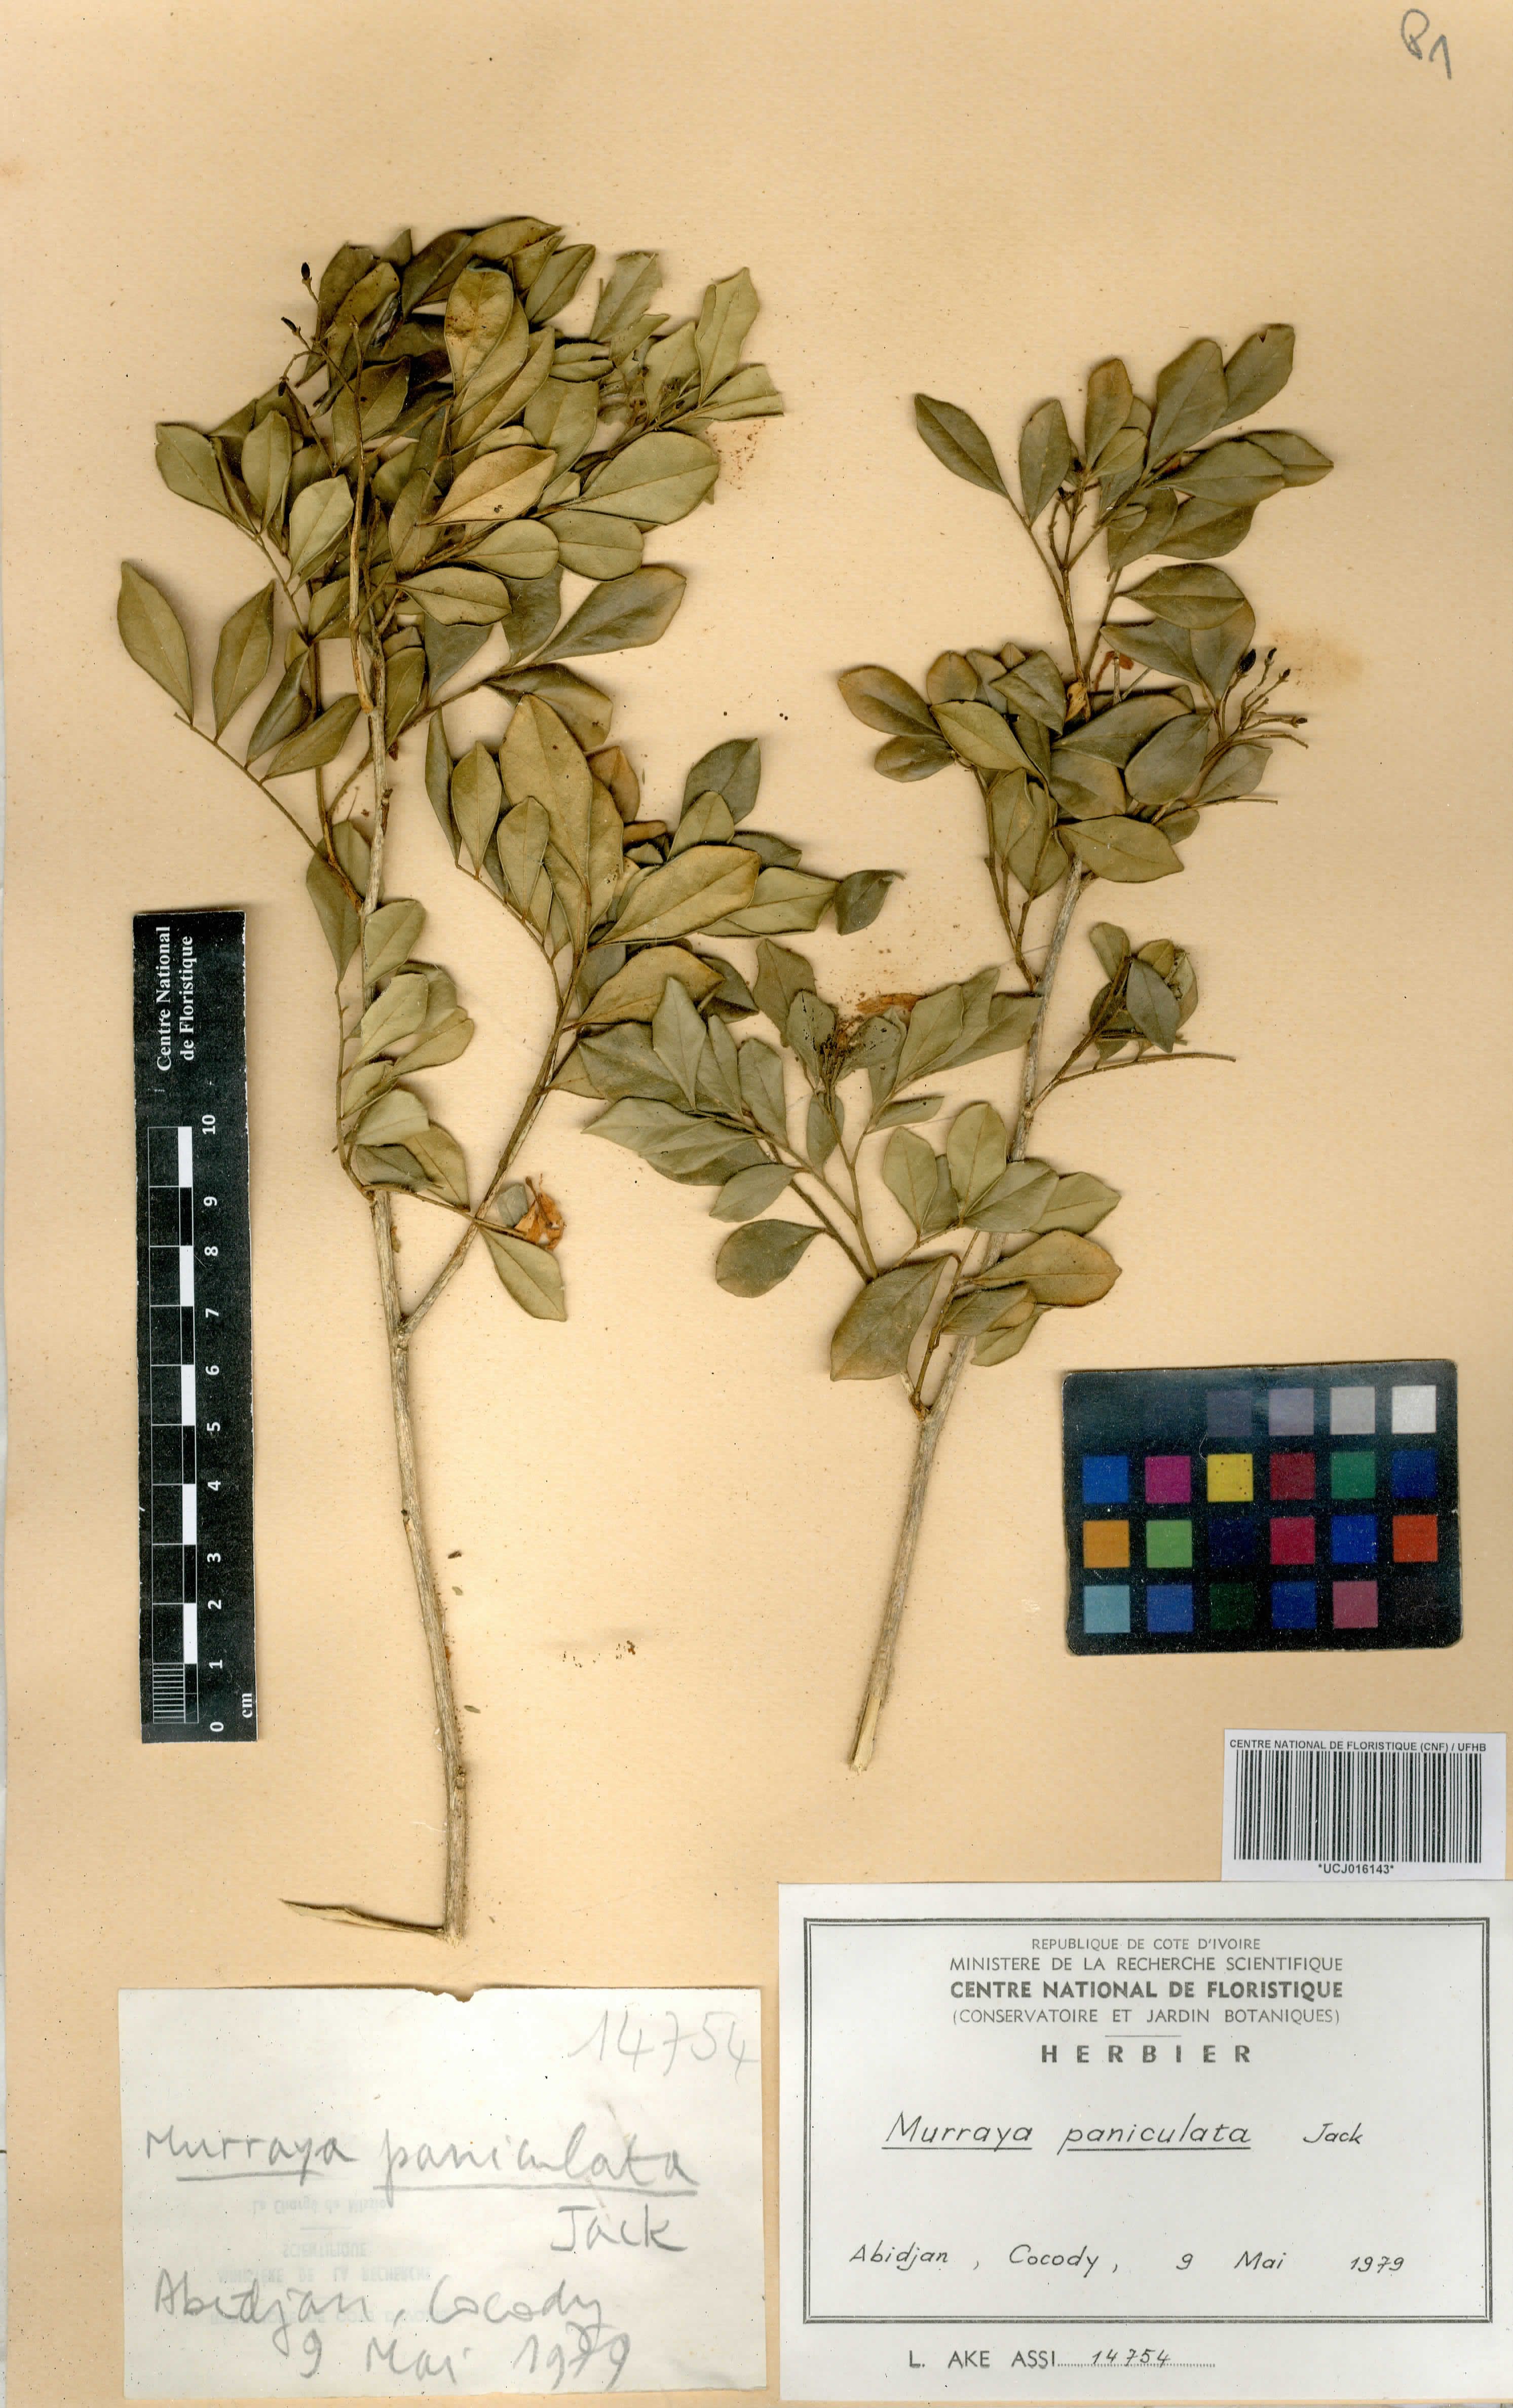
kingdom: Plantae
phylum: Tracheophyta
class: Magnoliopsida
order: Sapindales
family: Rutaceae
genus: Murraya
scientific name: Murraya paniculata
